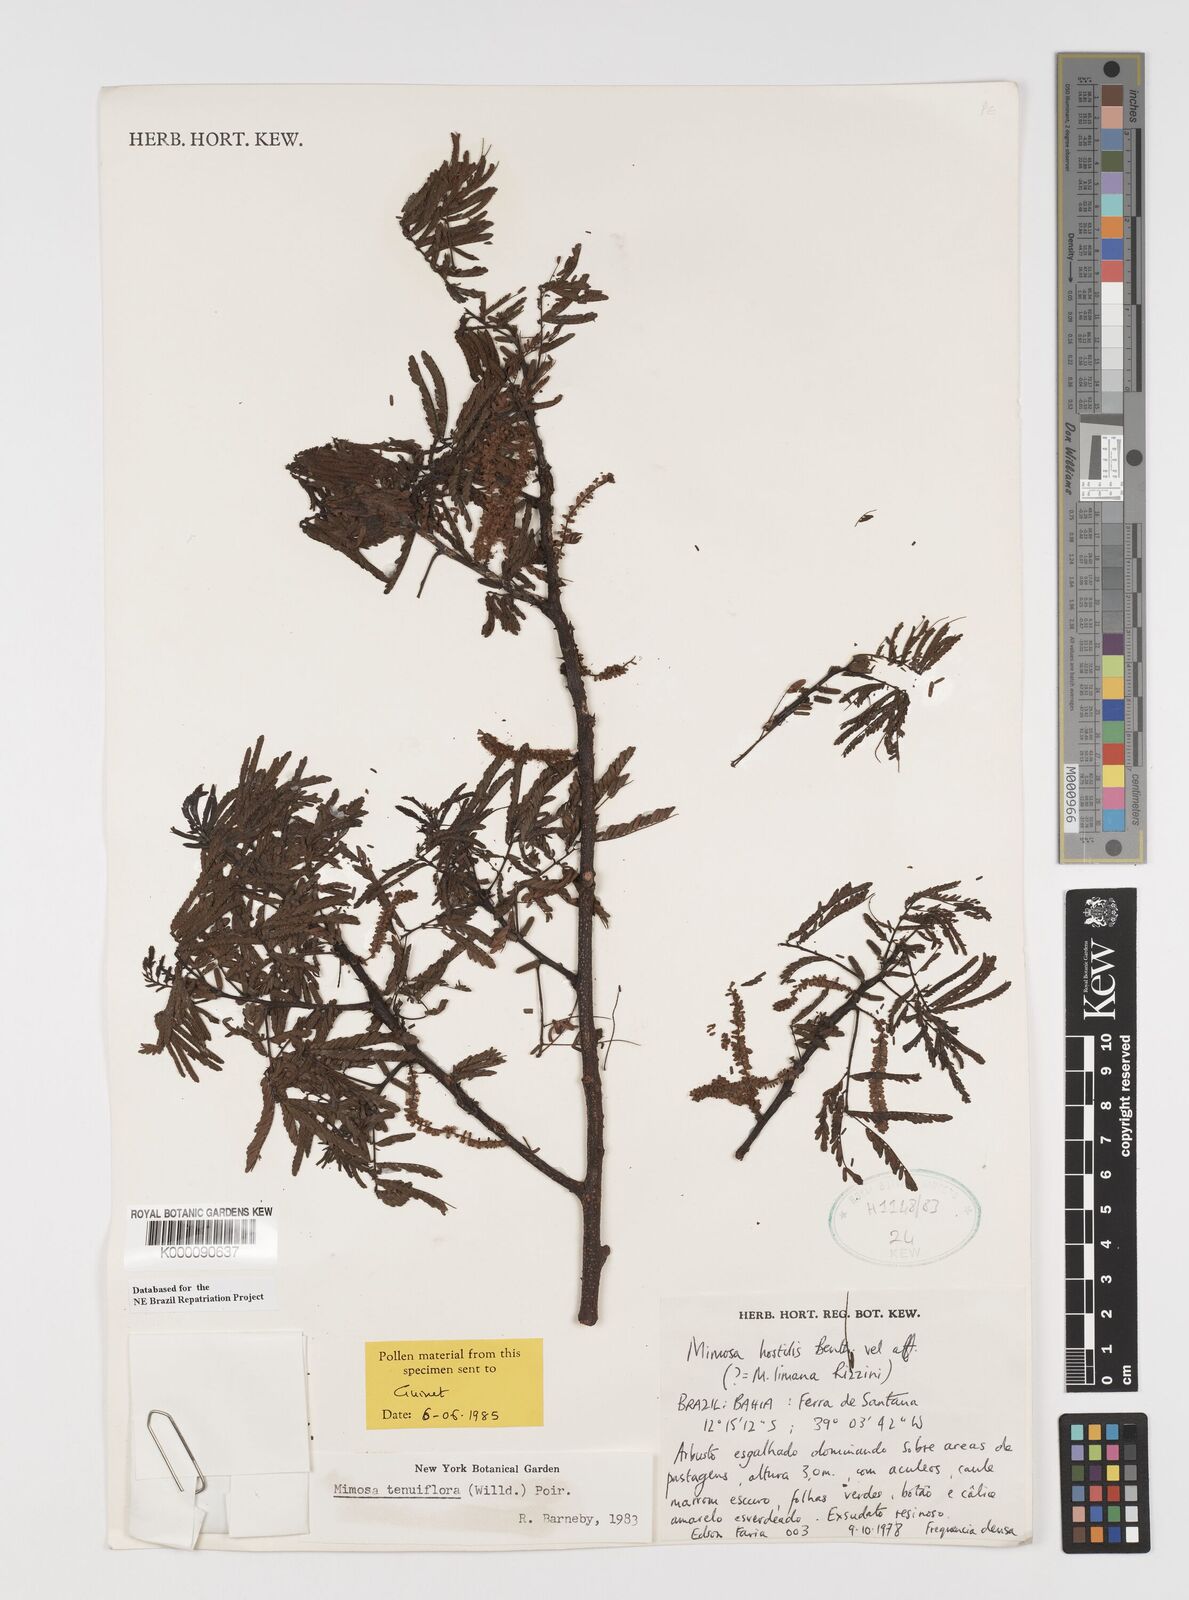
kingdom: Plantae
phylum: Tracheophyta
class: Magnoliopsida
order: Fabales
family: Fabaceae
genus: Mimosa
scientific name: Mimosa tenuiflora
